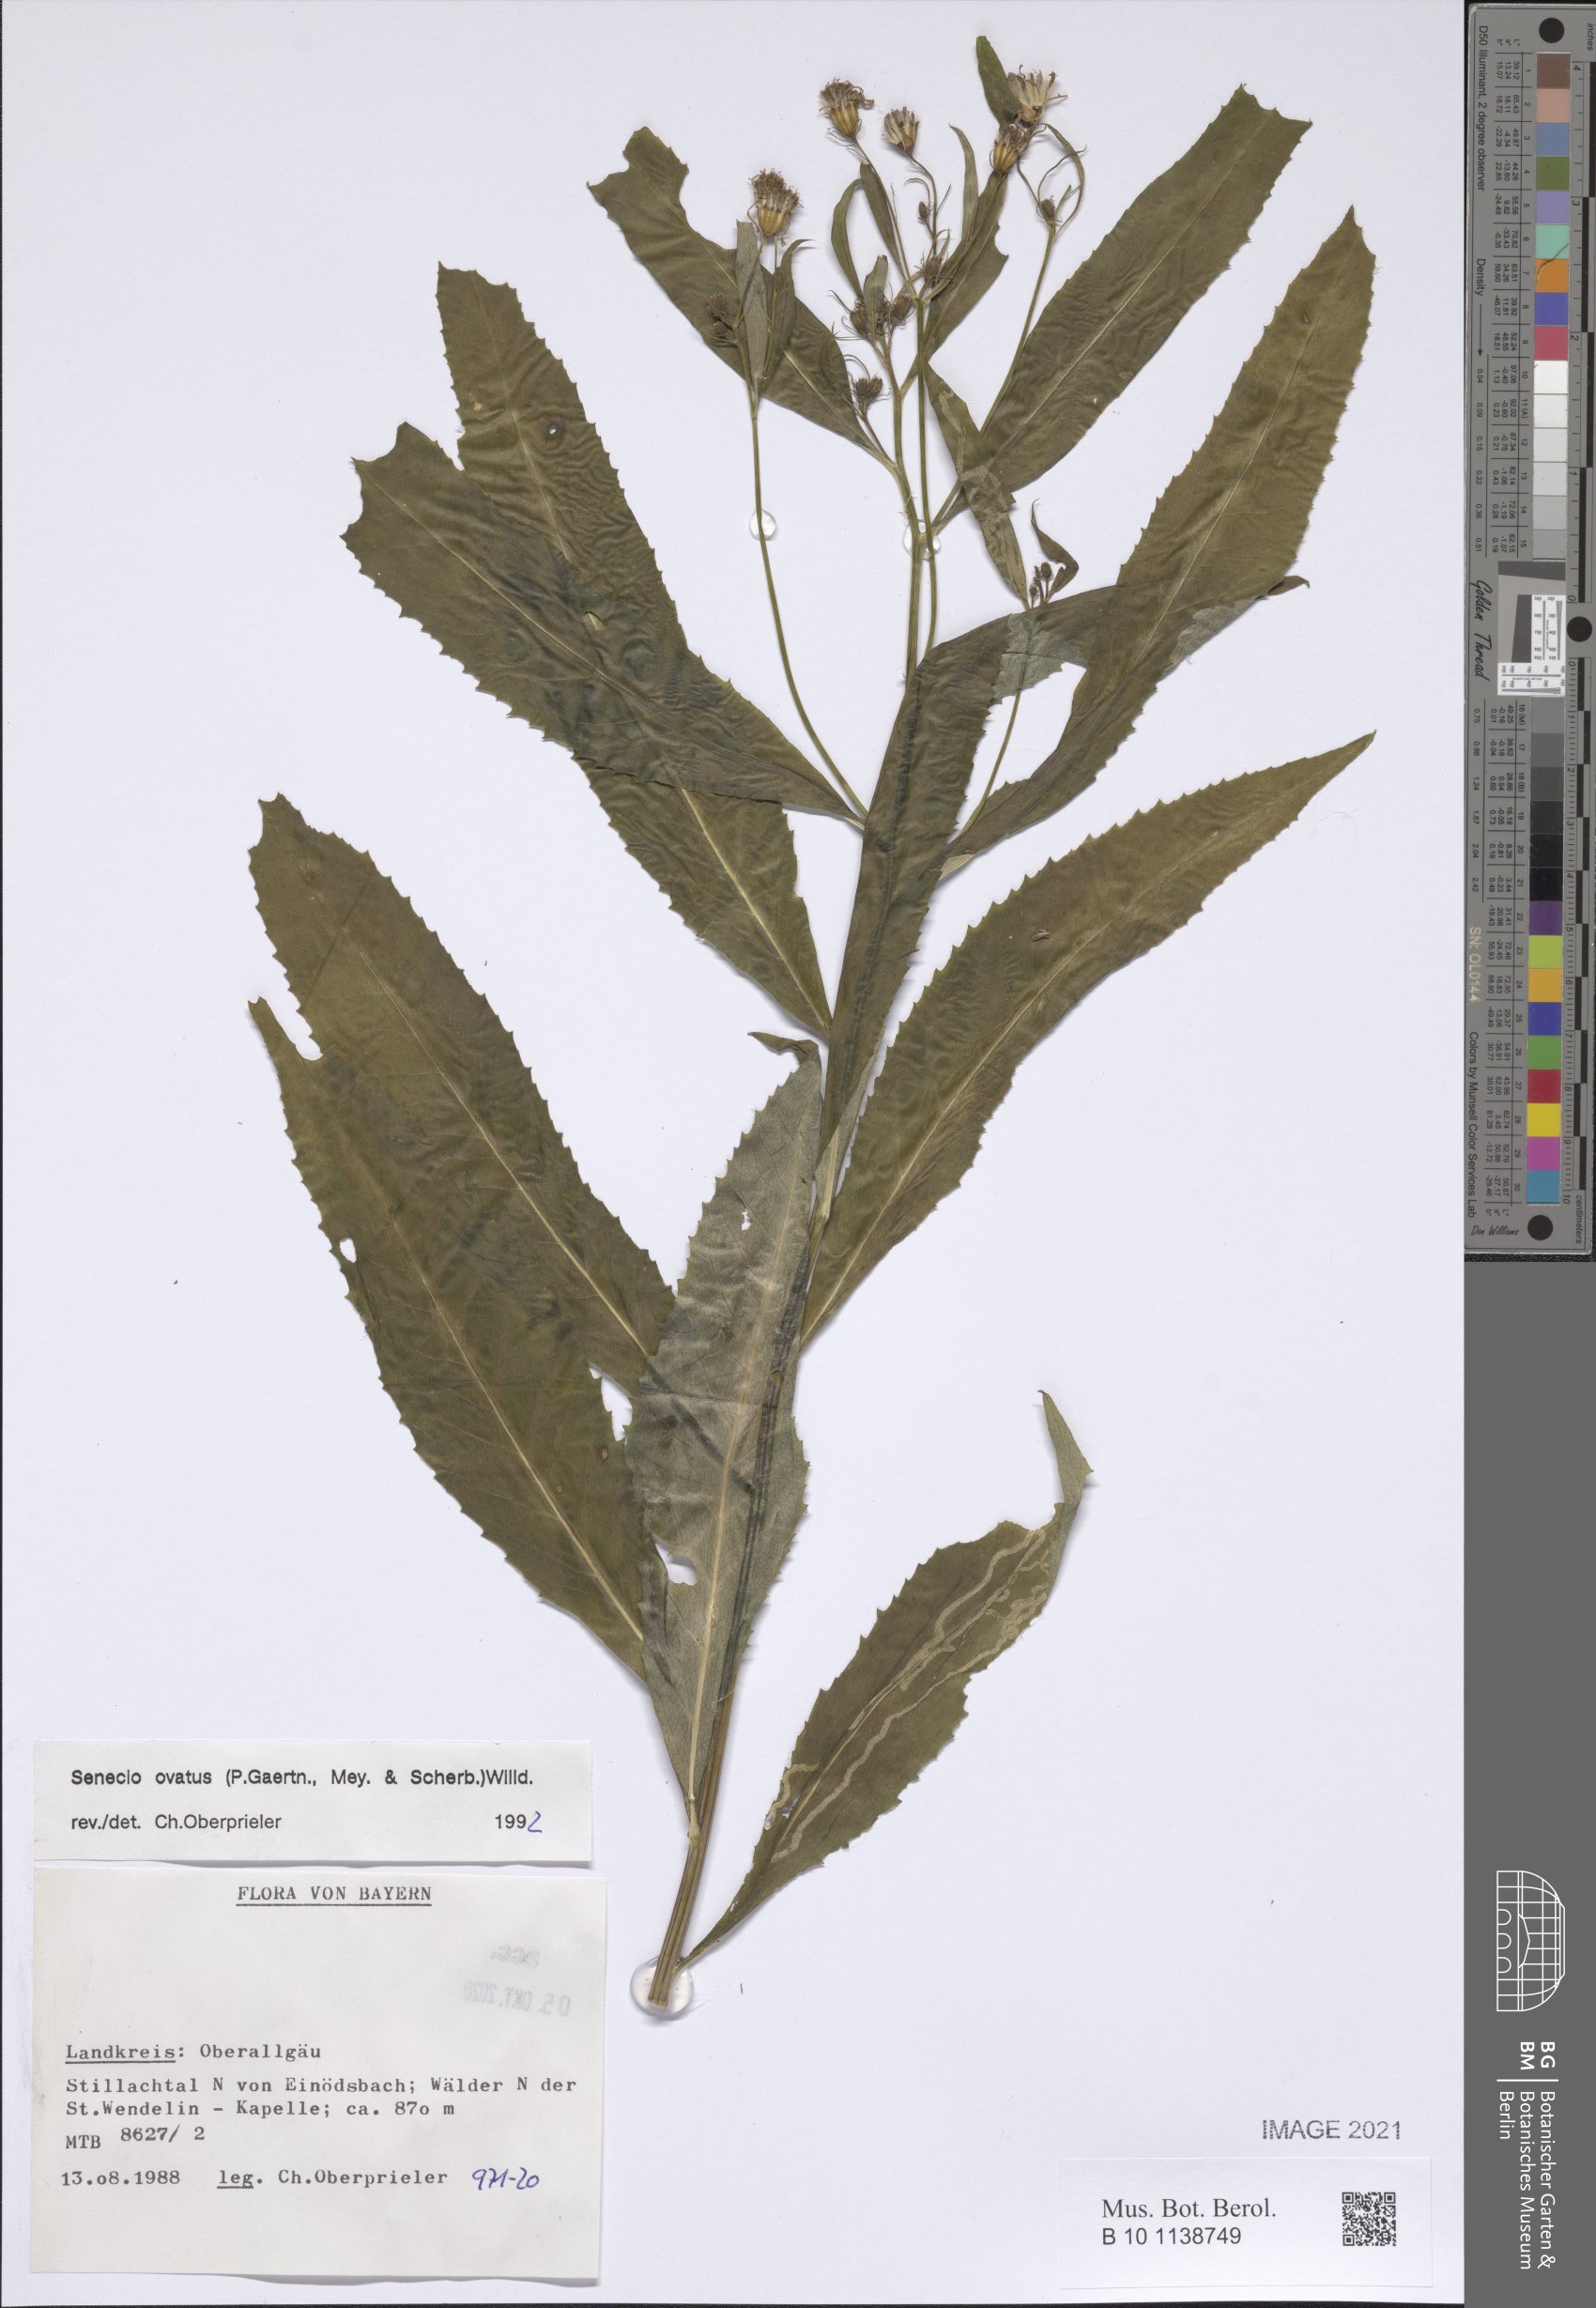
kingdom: Plantae
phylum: Tracheophyta
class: Magnoliopsida
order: Asterales
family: Asteraceae
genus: Senecio
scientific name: Senecio ovatus
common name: Wood ragwort
